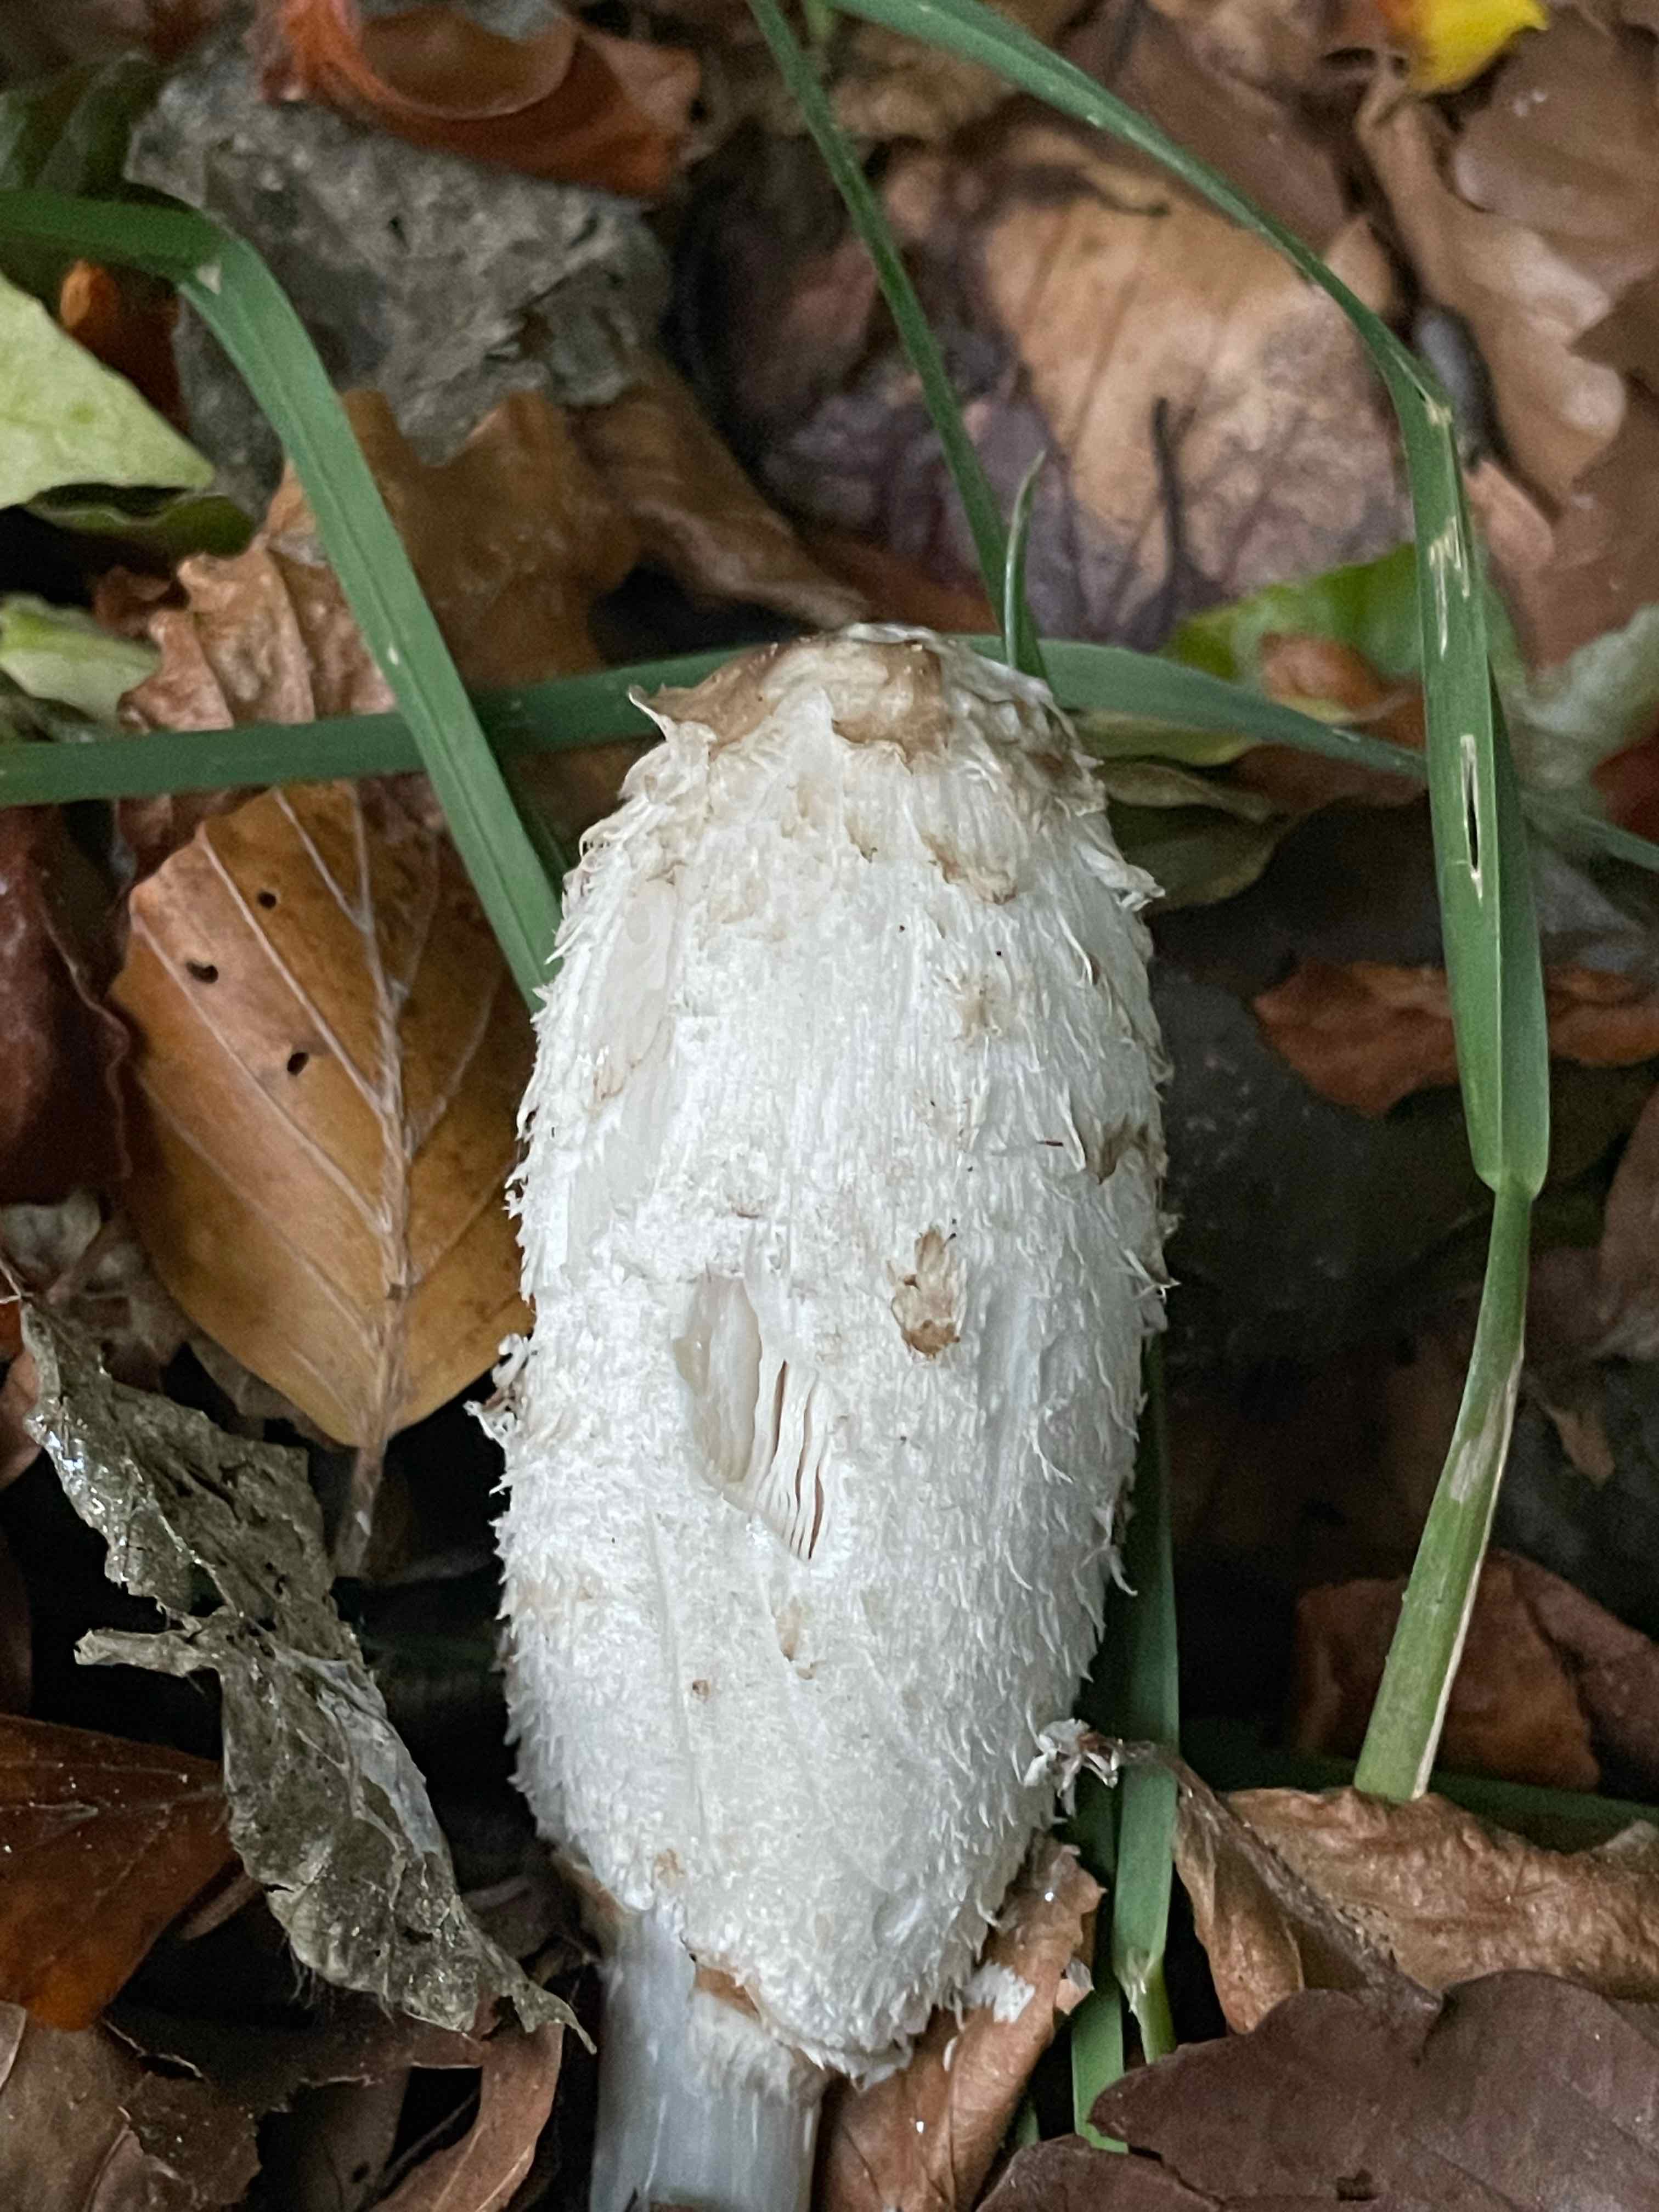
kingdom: Fungi
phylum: Basidiomycota
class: Agaricomycetes
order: Agaricales
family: Agaricaceae
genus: Coprinus
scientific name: Coprinus comatus
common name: stor parykhat
